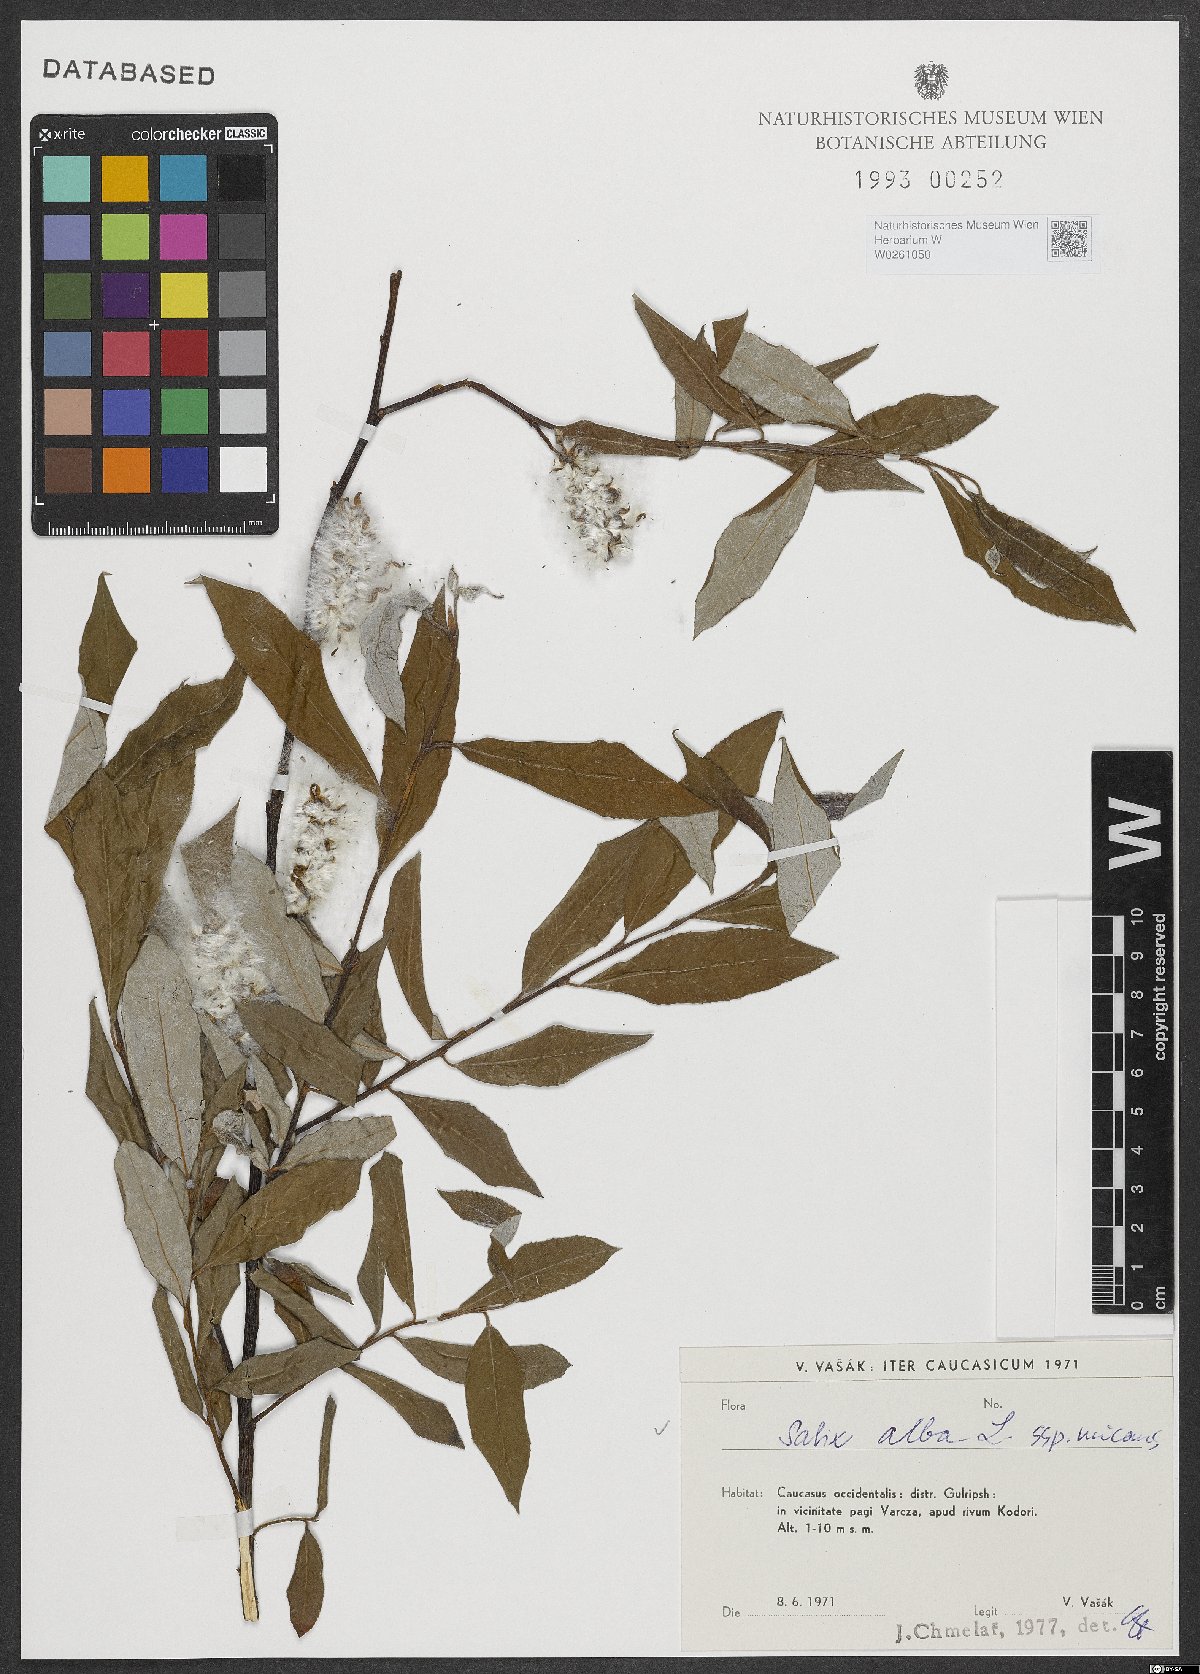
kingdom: Plantae
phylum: Tracheophyta
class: Magnoliopsida
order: Malpighiales
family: Salicaceae
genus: Salix
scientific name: Salix alba
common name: White willow
